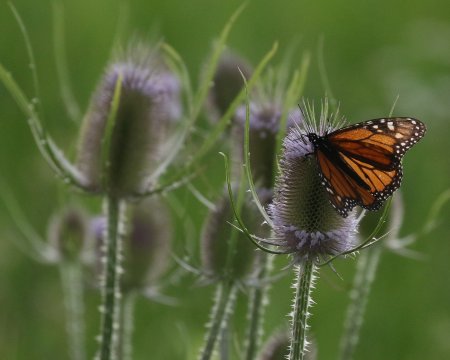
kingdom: Animalia
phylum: Arthropoda
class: Insecta
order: Lepidoptera
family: Nymphalidae
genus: Danaus
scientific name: Danaus plexippus
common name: Monarch
